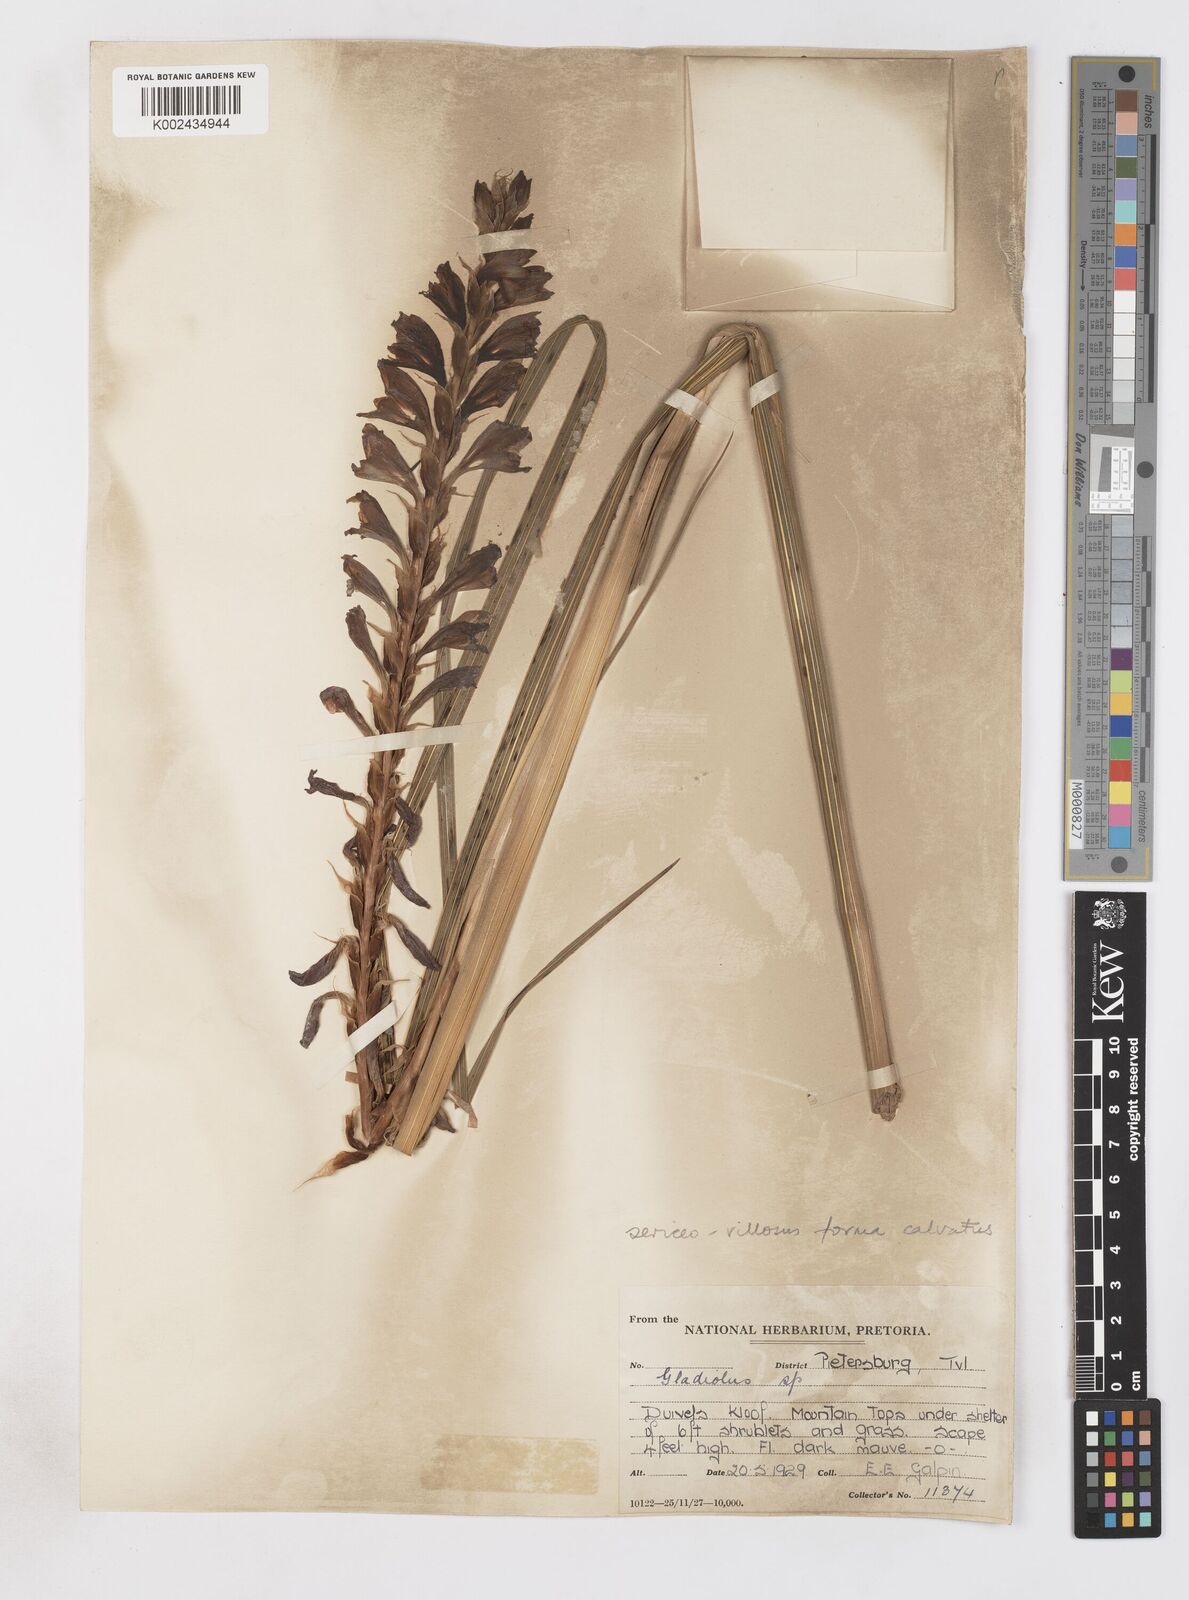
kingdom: Plantae
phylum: Tracheophyta
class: Liliopsida
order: Asparagales
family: Iridaceae
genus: Gladiolus
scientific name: Gladiolus sericeovillosus
